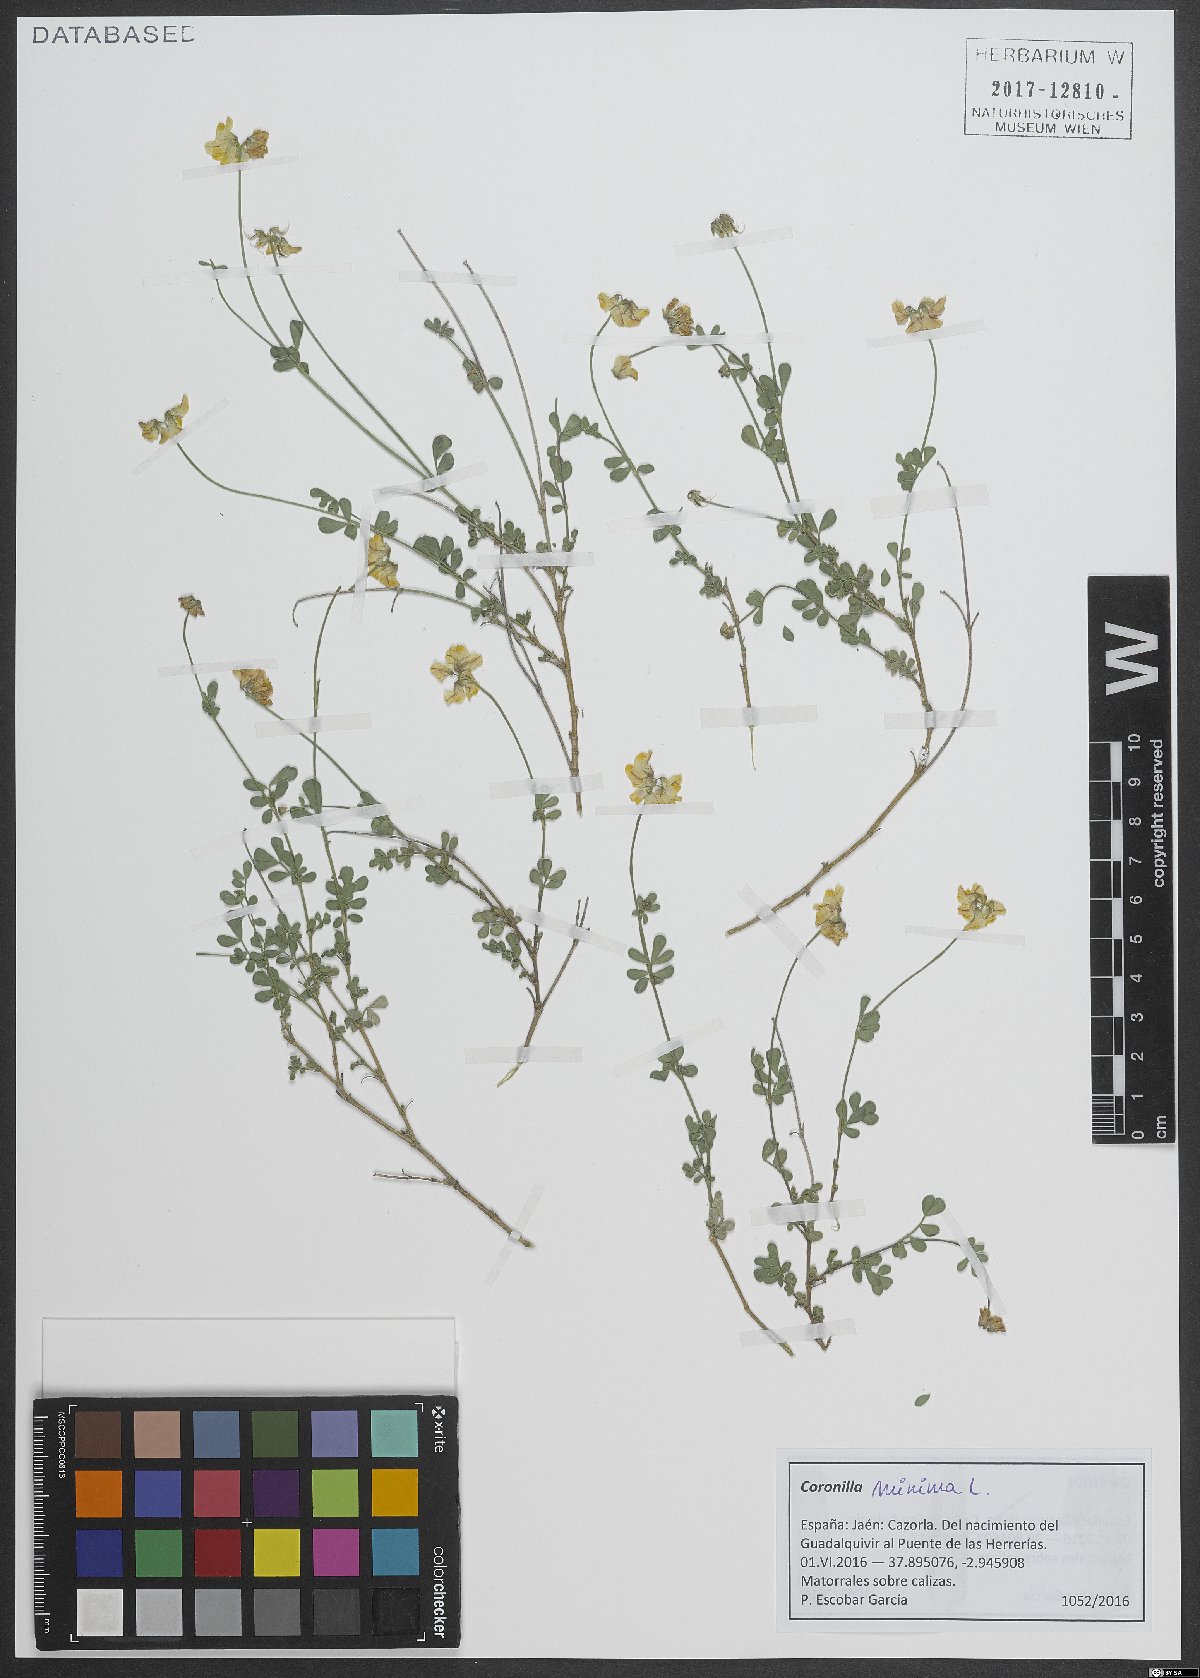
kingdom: Plantae
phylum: Tracheophyta
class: Magnoliopsida
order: Fabales
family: Fabaceae
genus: Coronilla
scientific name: Coronilla minima
